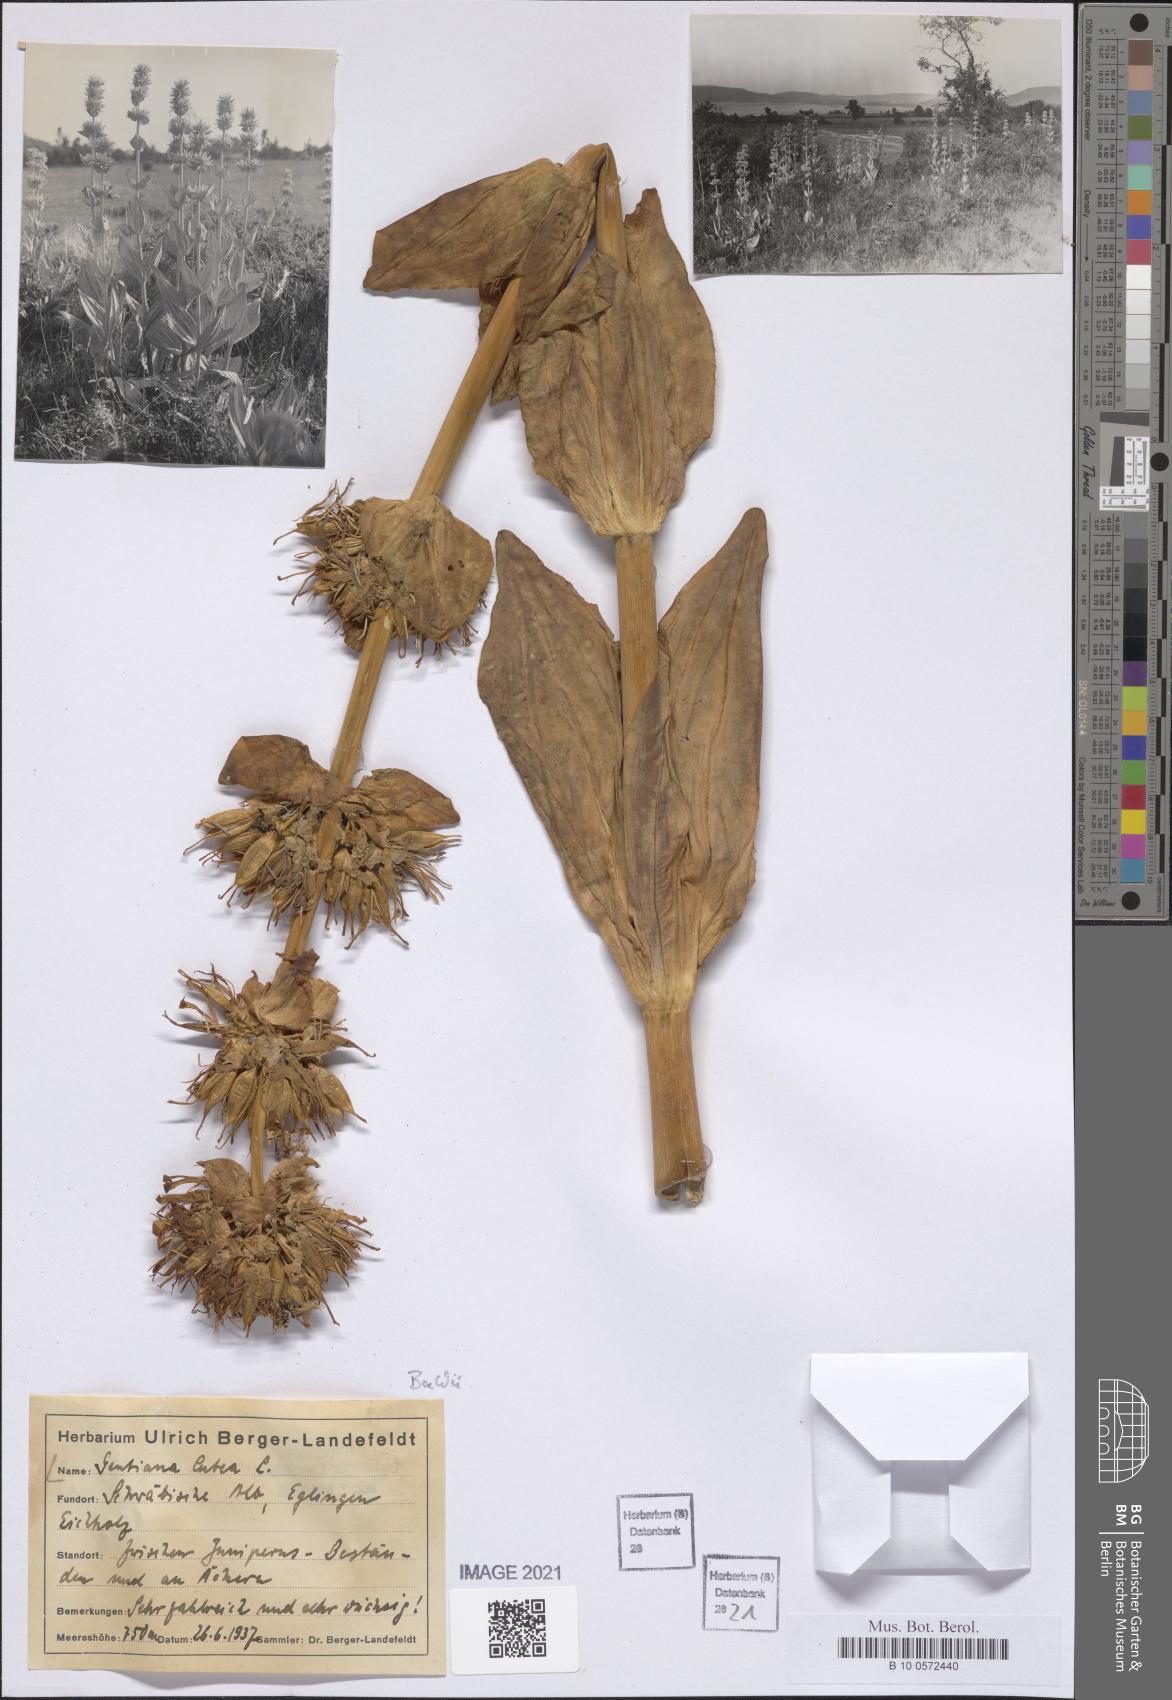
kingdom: Plantae
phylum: Tracheophyta
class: Magnoliopsida
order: Gentianales
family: Gentianaceae
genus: Gentiana
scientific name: Gentiana lutea
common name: Great yellow gentian
